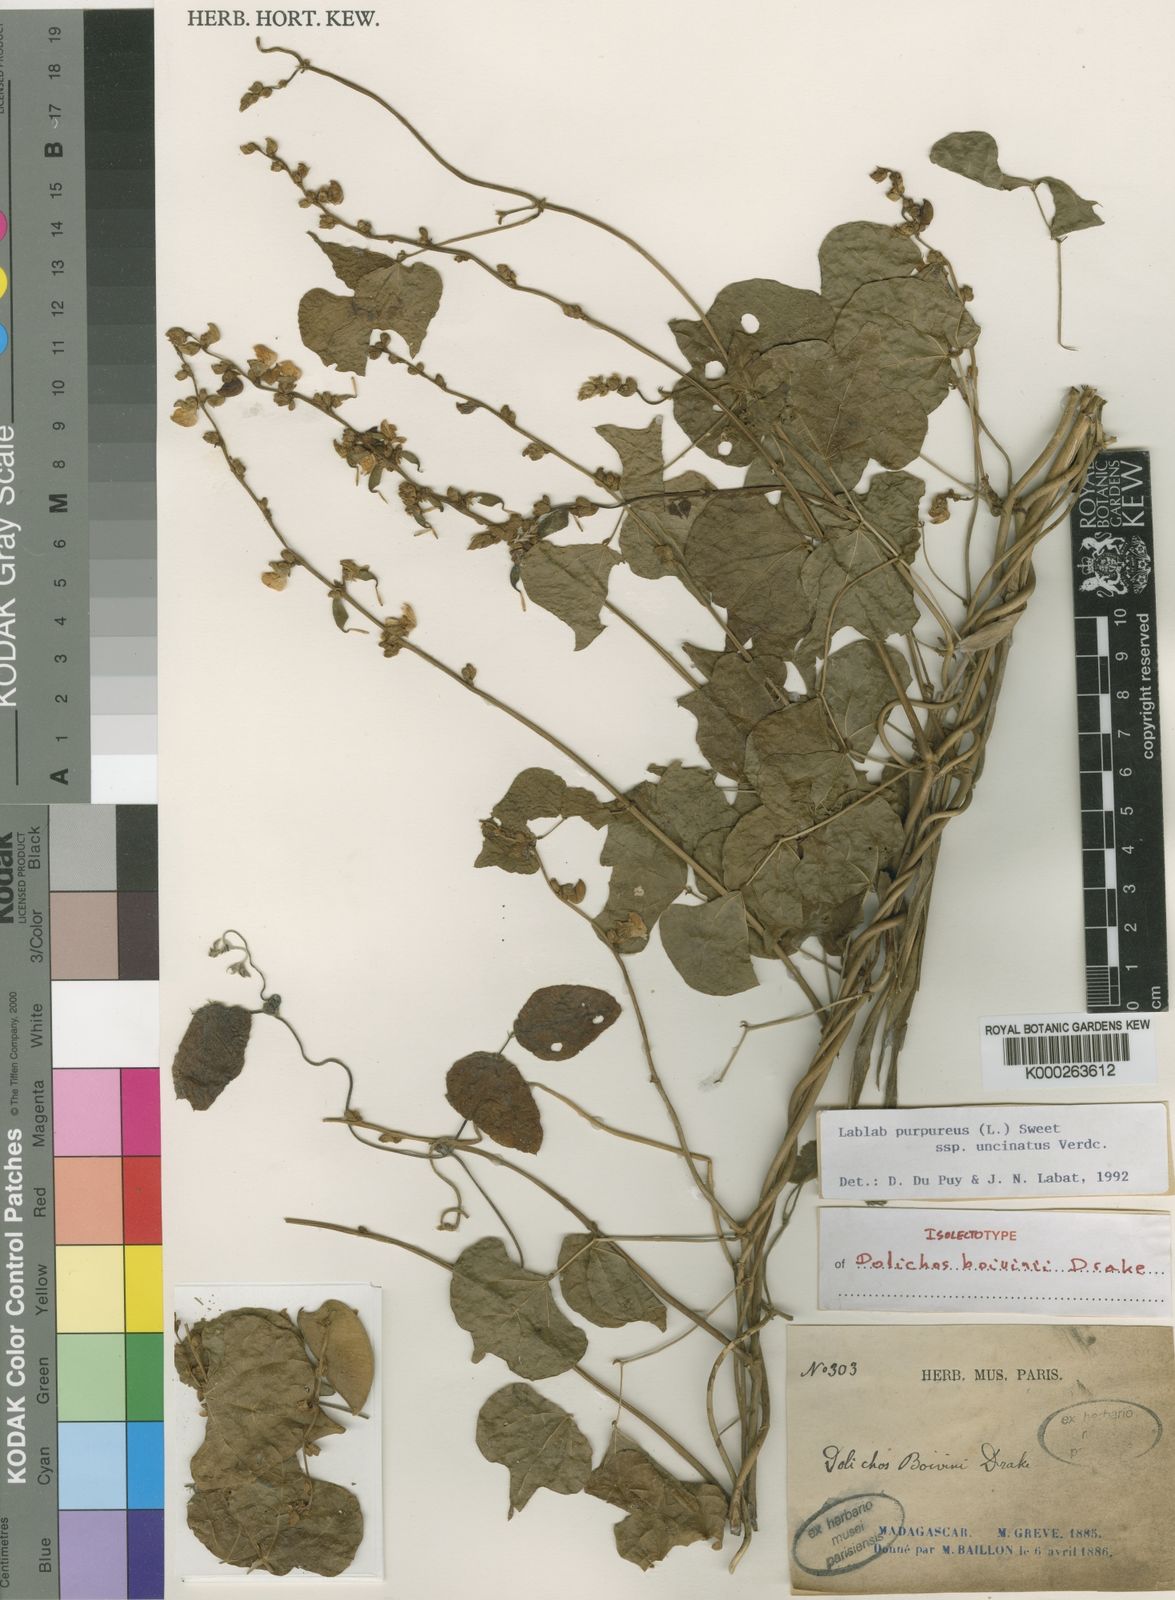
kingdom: Plantae
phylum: Tracheophyta
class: Magnoliopsida
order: Fabales
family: Fabaceae
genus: Lablab
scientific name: Lablab purpureus
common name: Lablab-bean
